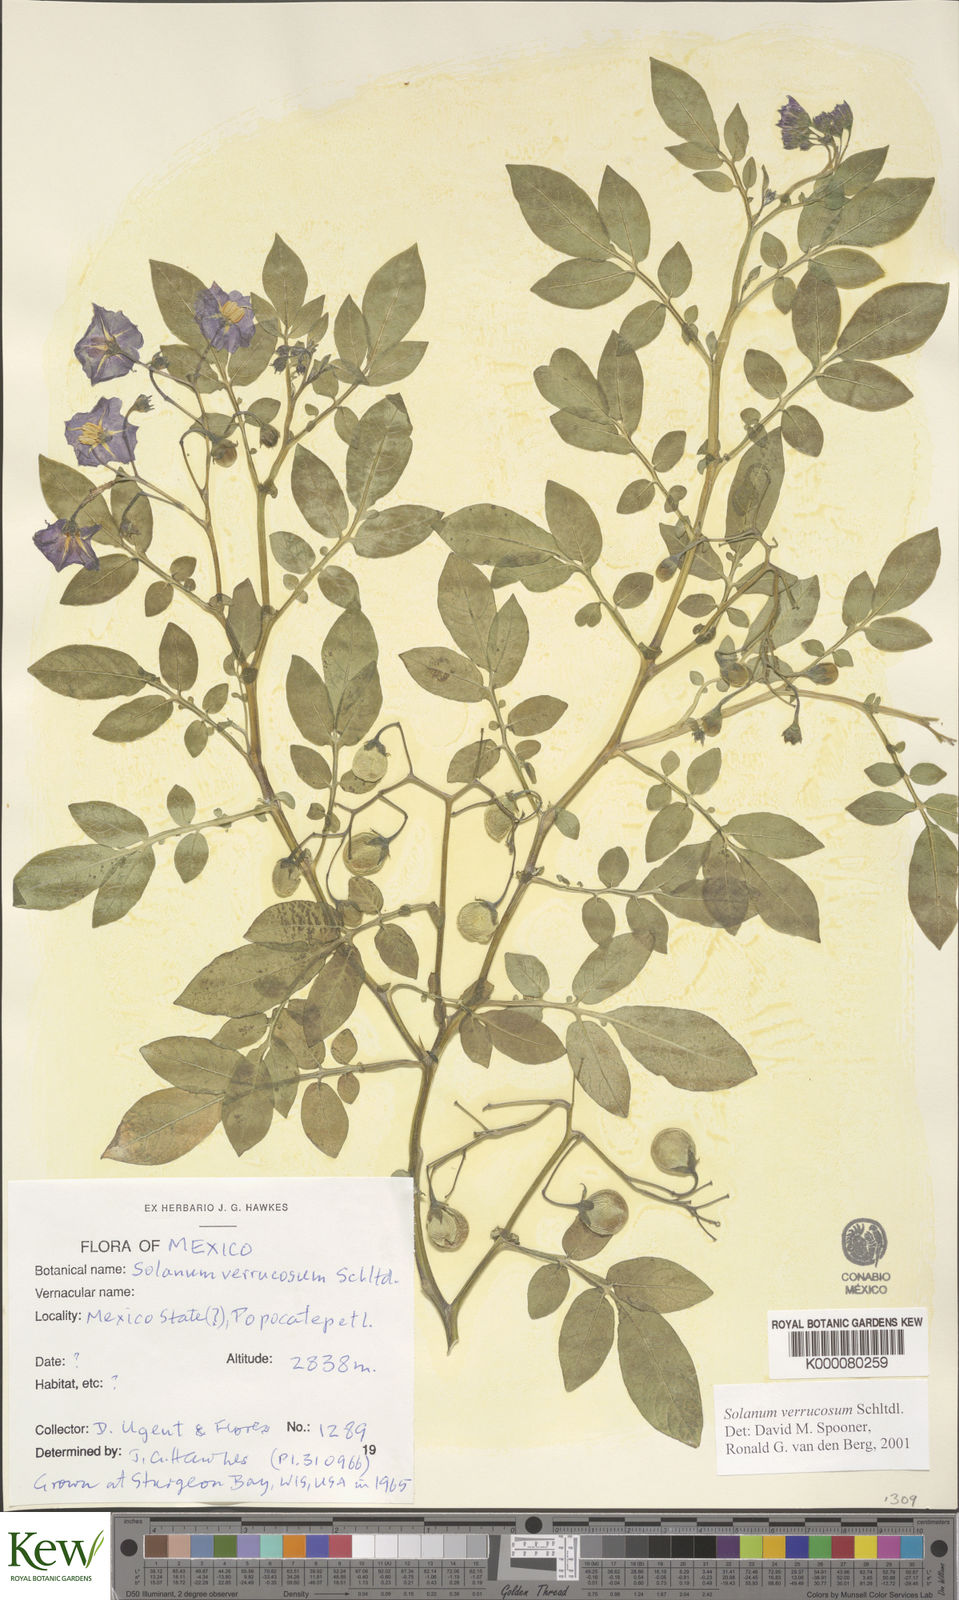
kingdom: Plantae
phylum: Tracheophyta
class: Magnoliopsida
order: Solanales
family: Solanaceae
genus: Solanum
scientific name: Solanum verrucosum
